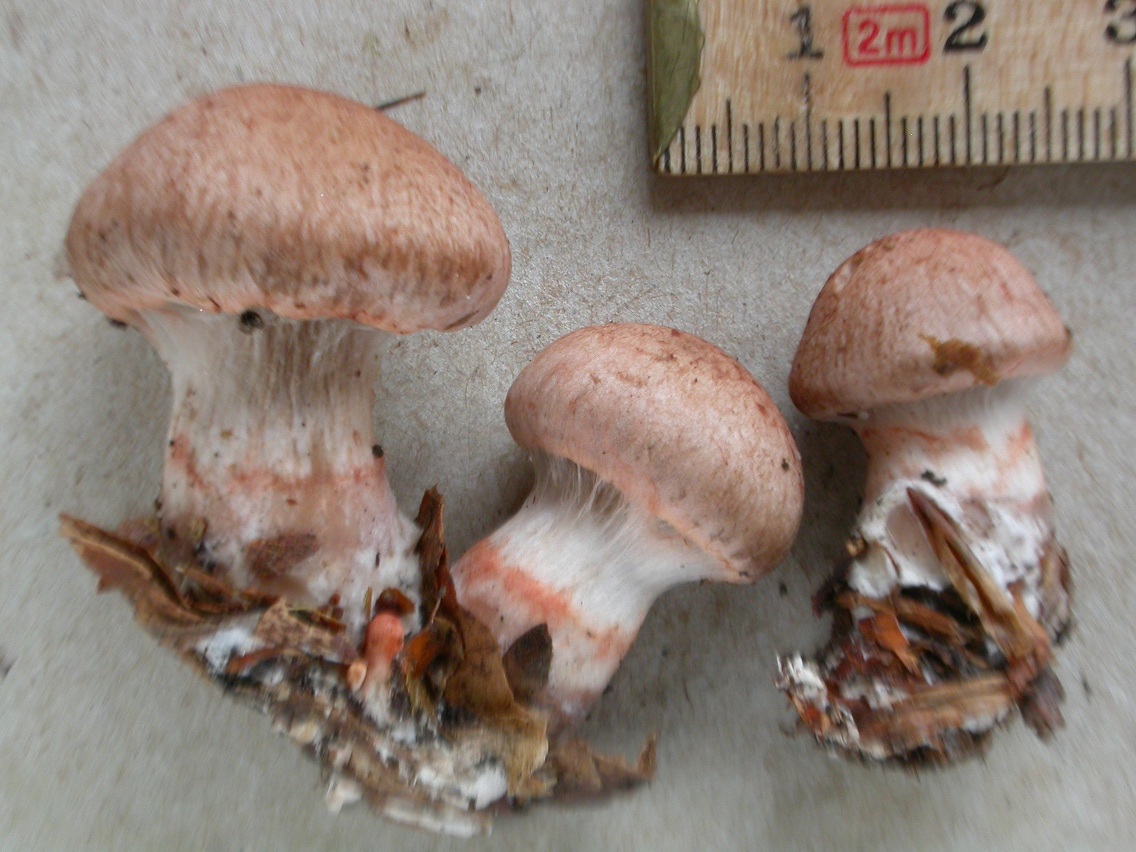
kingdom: Fungi
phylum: Basidiomycota
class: Agaricomycetes
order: Agaricales
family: Cortinariaceae
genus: Cortinarius
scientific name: Cortinarius paragaudis
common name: rødbæltet slørhat
